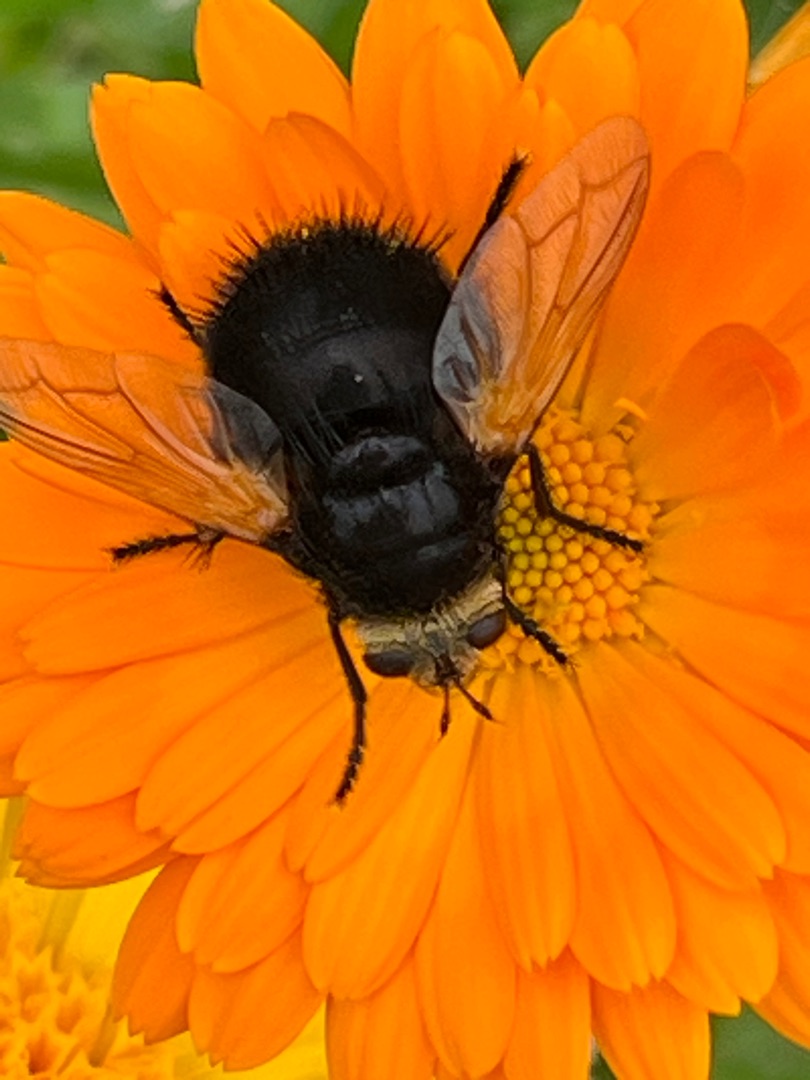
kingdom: Animalia
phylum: Arthropoda
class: Insecta
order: Diptera
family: Tachinidae
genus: Tachina
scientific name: Tachina grossa
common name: Kæmpefluen Harald
